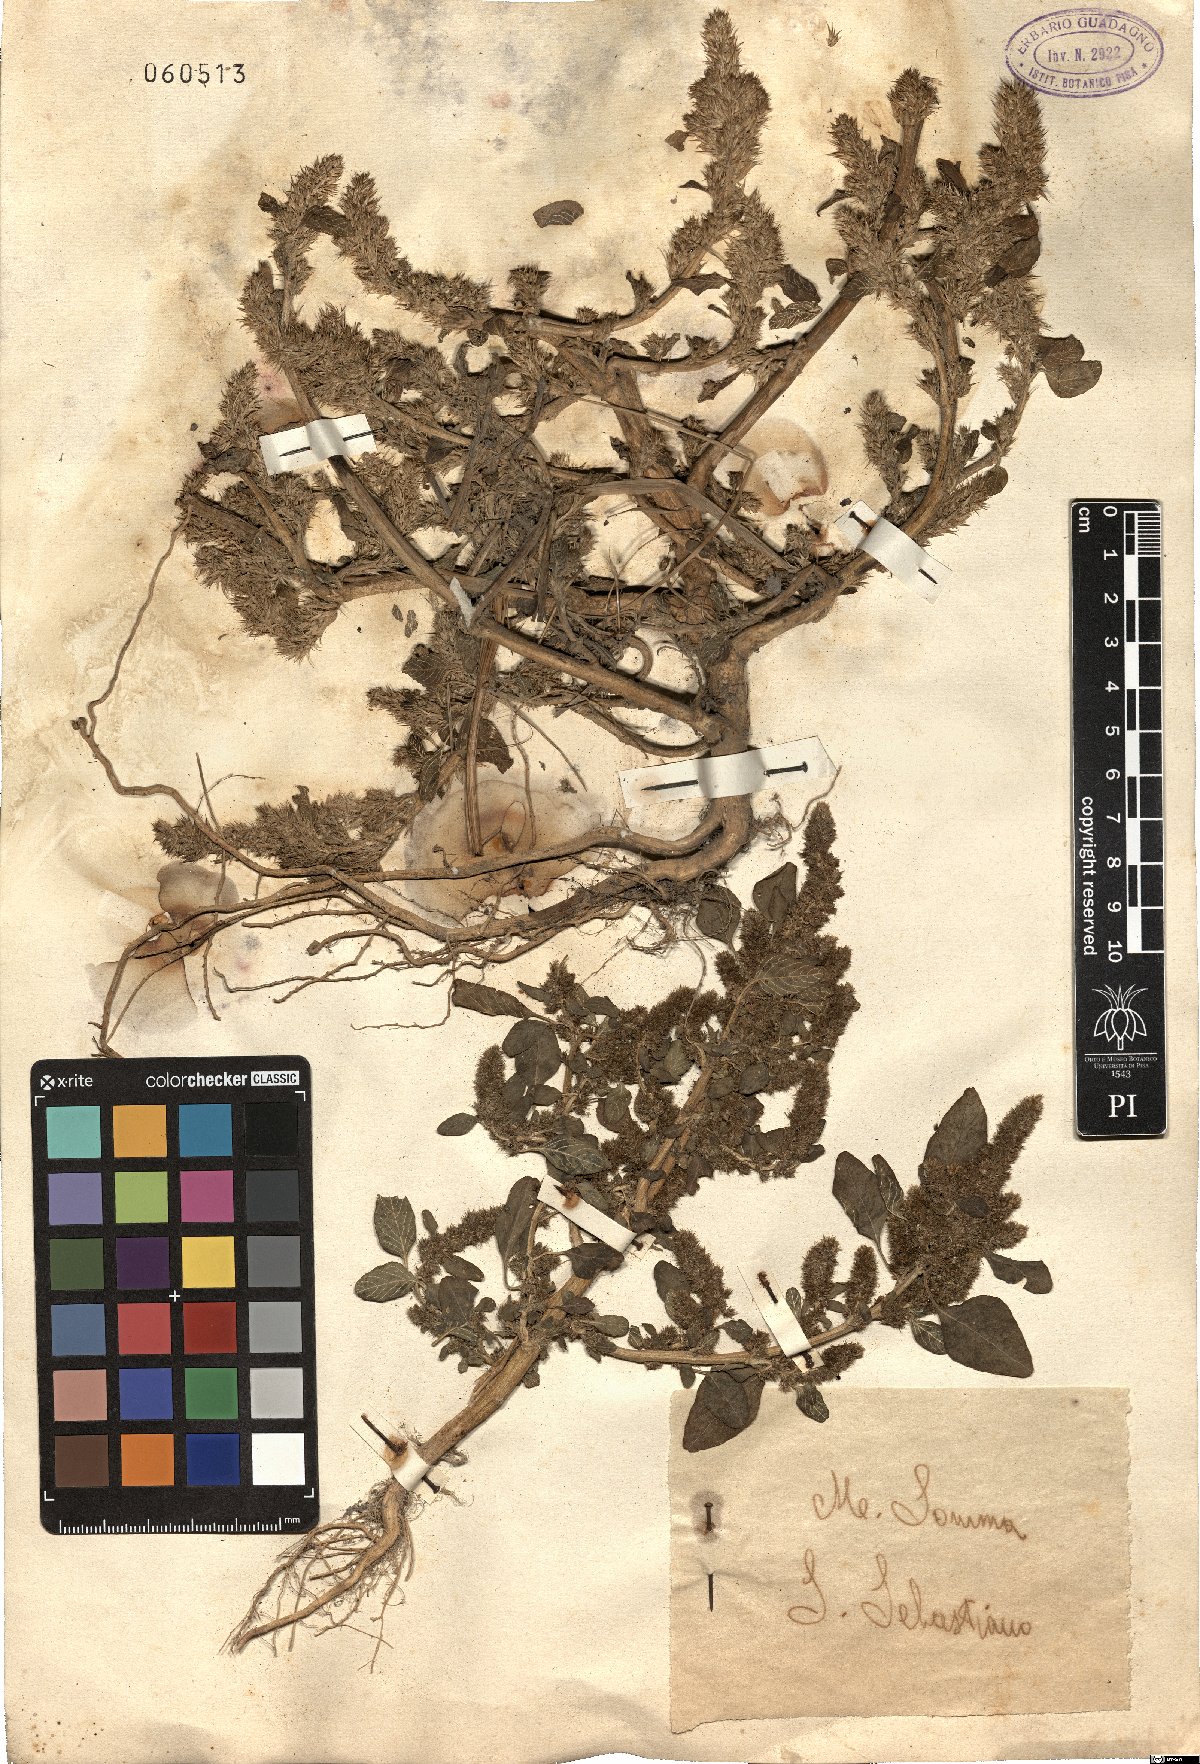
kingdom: Plantae
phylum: Tracheophyta
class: Magnoliopsida
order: Caryophyllales
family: Amaranthaceae
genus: Amaranthus
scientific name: Amaranthus
